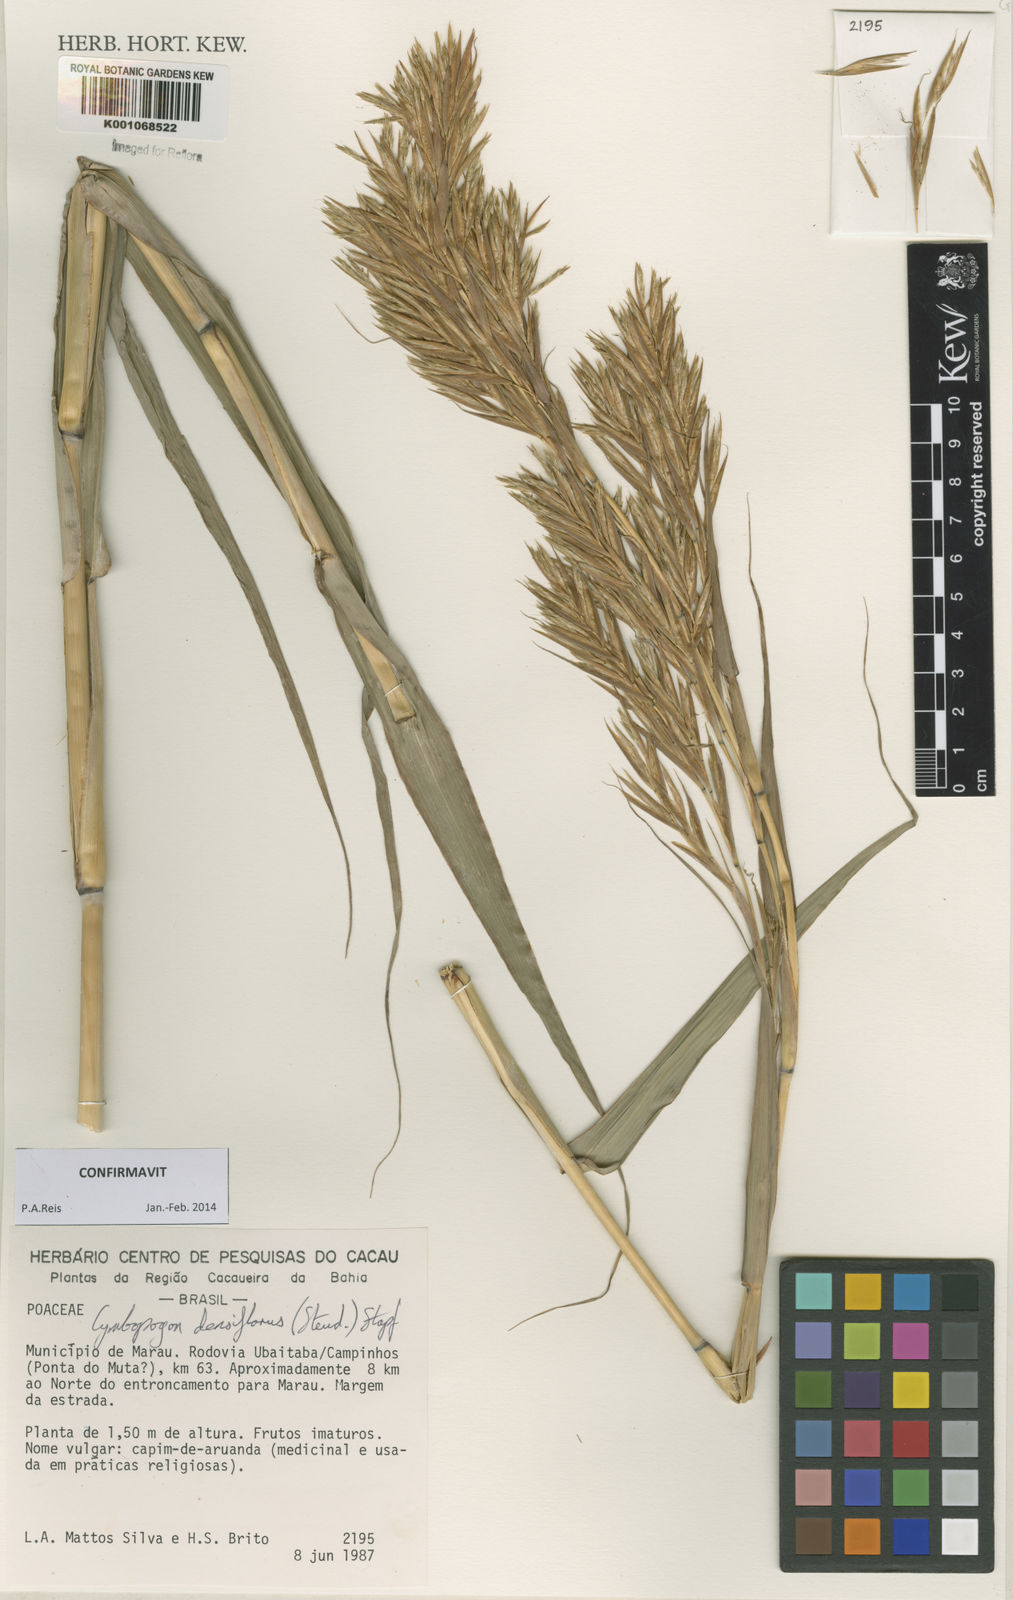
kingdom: Plantae
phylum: Tracheophyta
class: Liliopsida
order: Poales
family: Poaceae
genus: Cymbopogon
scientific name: Cymbopogon densiflorus
